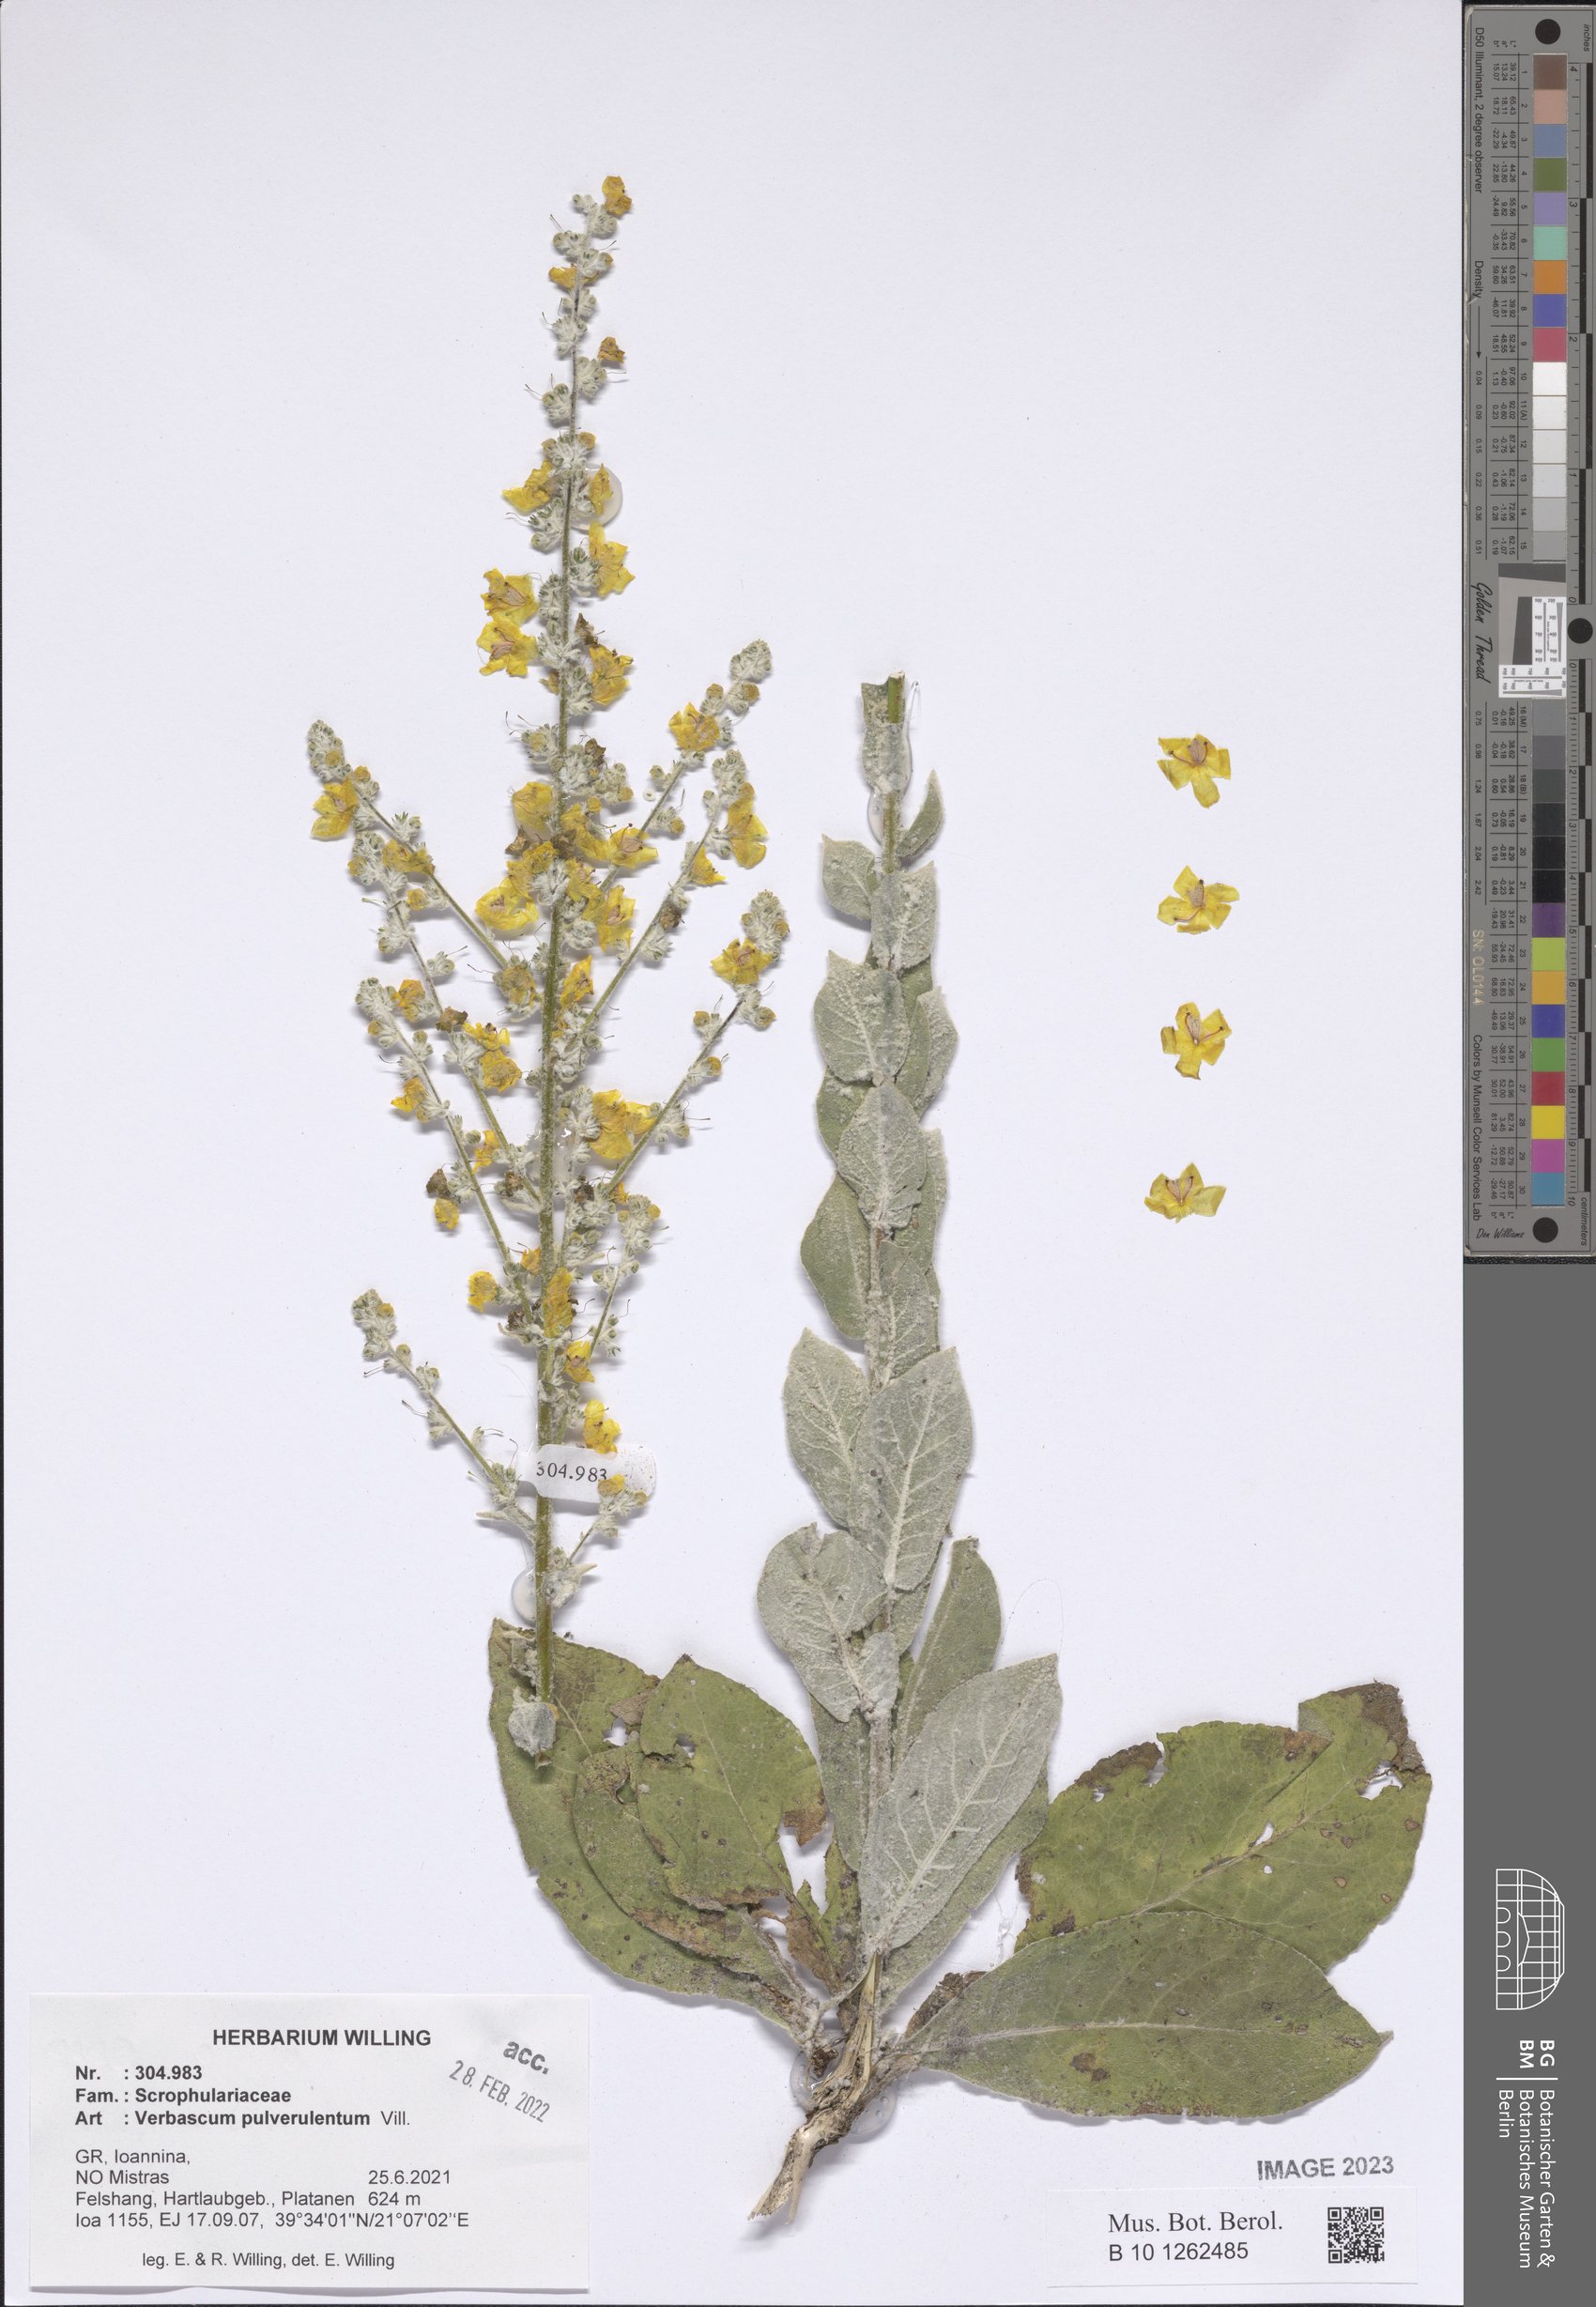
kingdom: Plantae
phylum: Tracheophyta
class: Magnoliopsida
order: Lamiales
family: Scrophulariaceae
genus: Verbascum
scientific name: Verbascum pulverulentum
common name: Broad-leaf mullein
